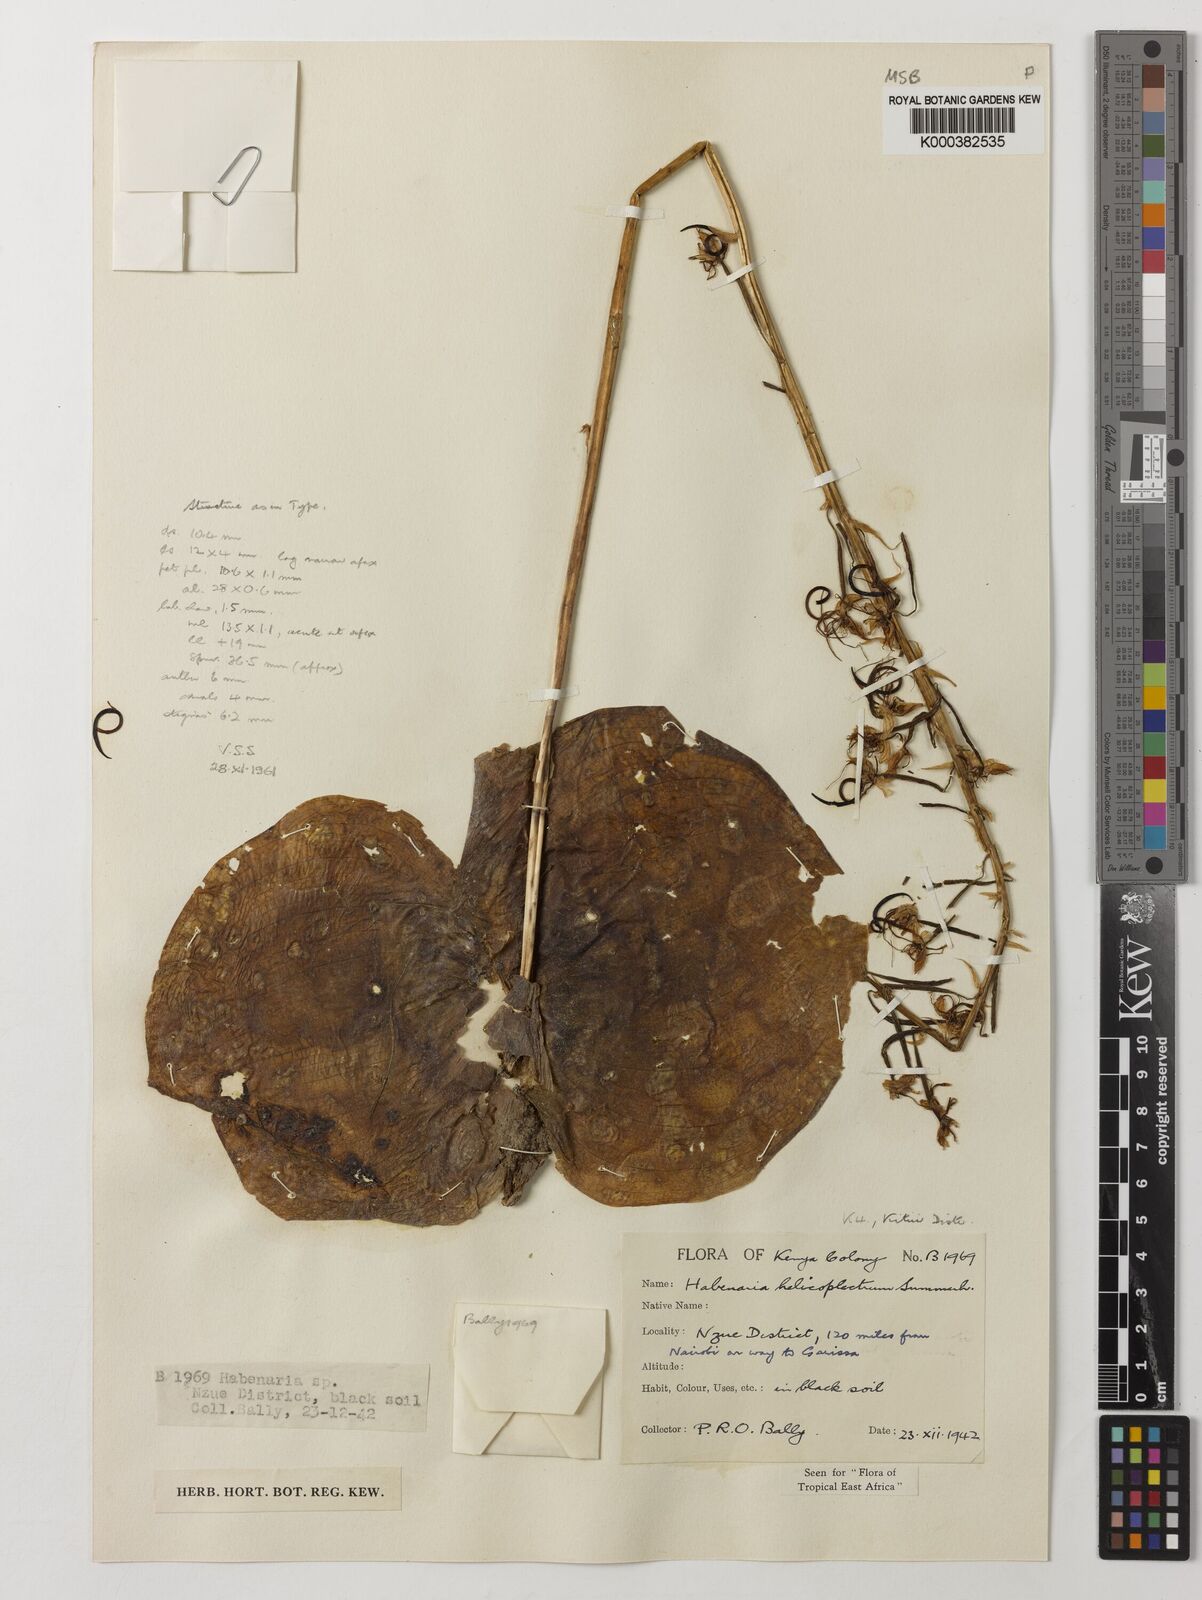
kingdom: Plantae
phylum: Tracheophyta
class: Liliopsida
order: Asparagales
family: Orchidaceae
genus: Habenaria
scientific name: Habenaria helicoplectrum
